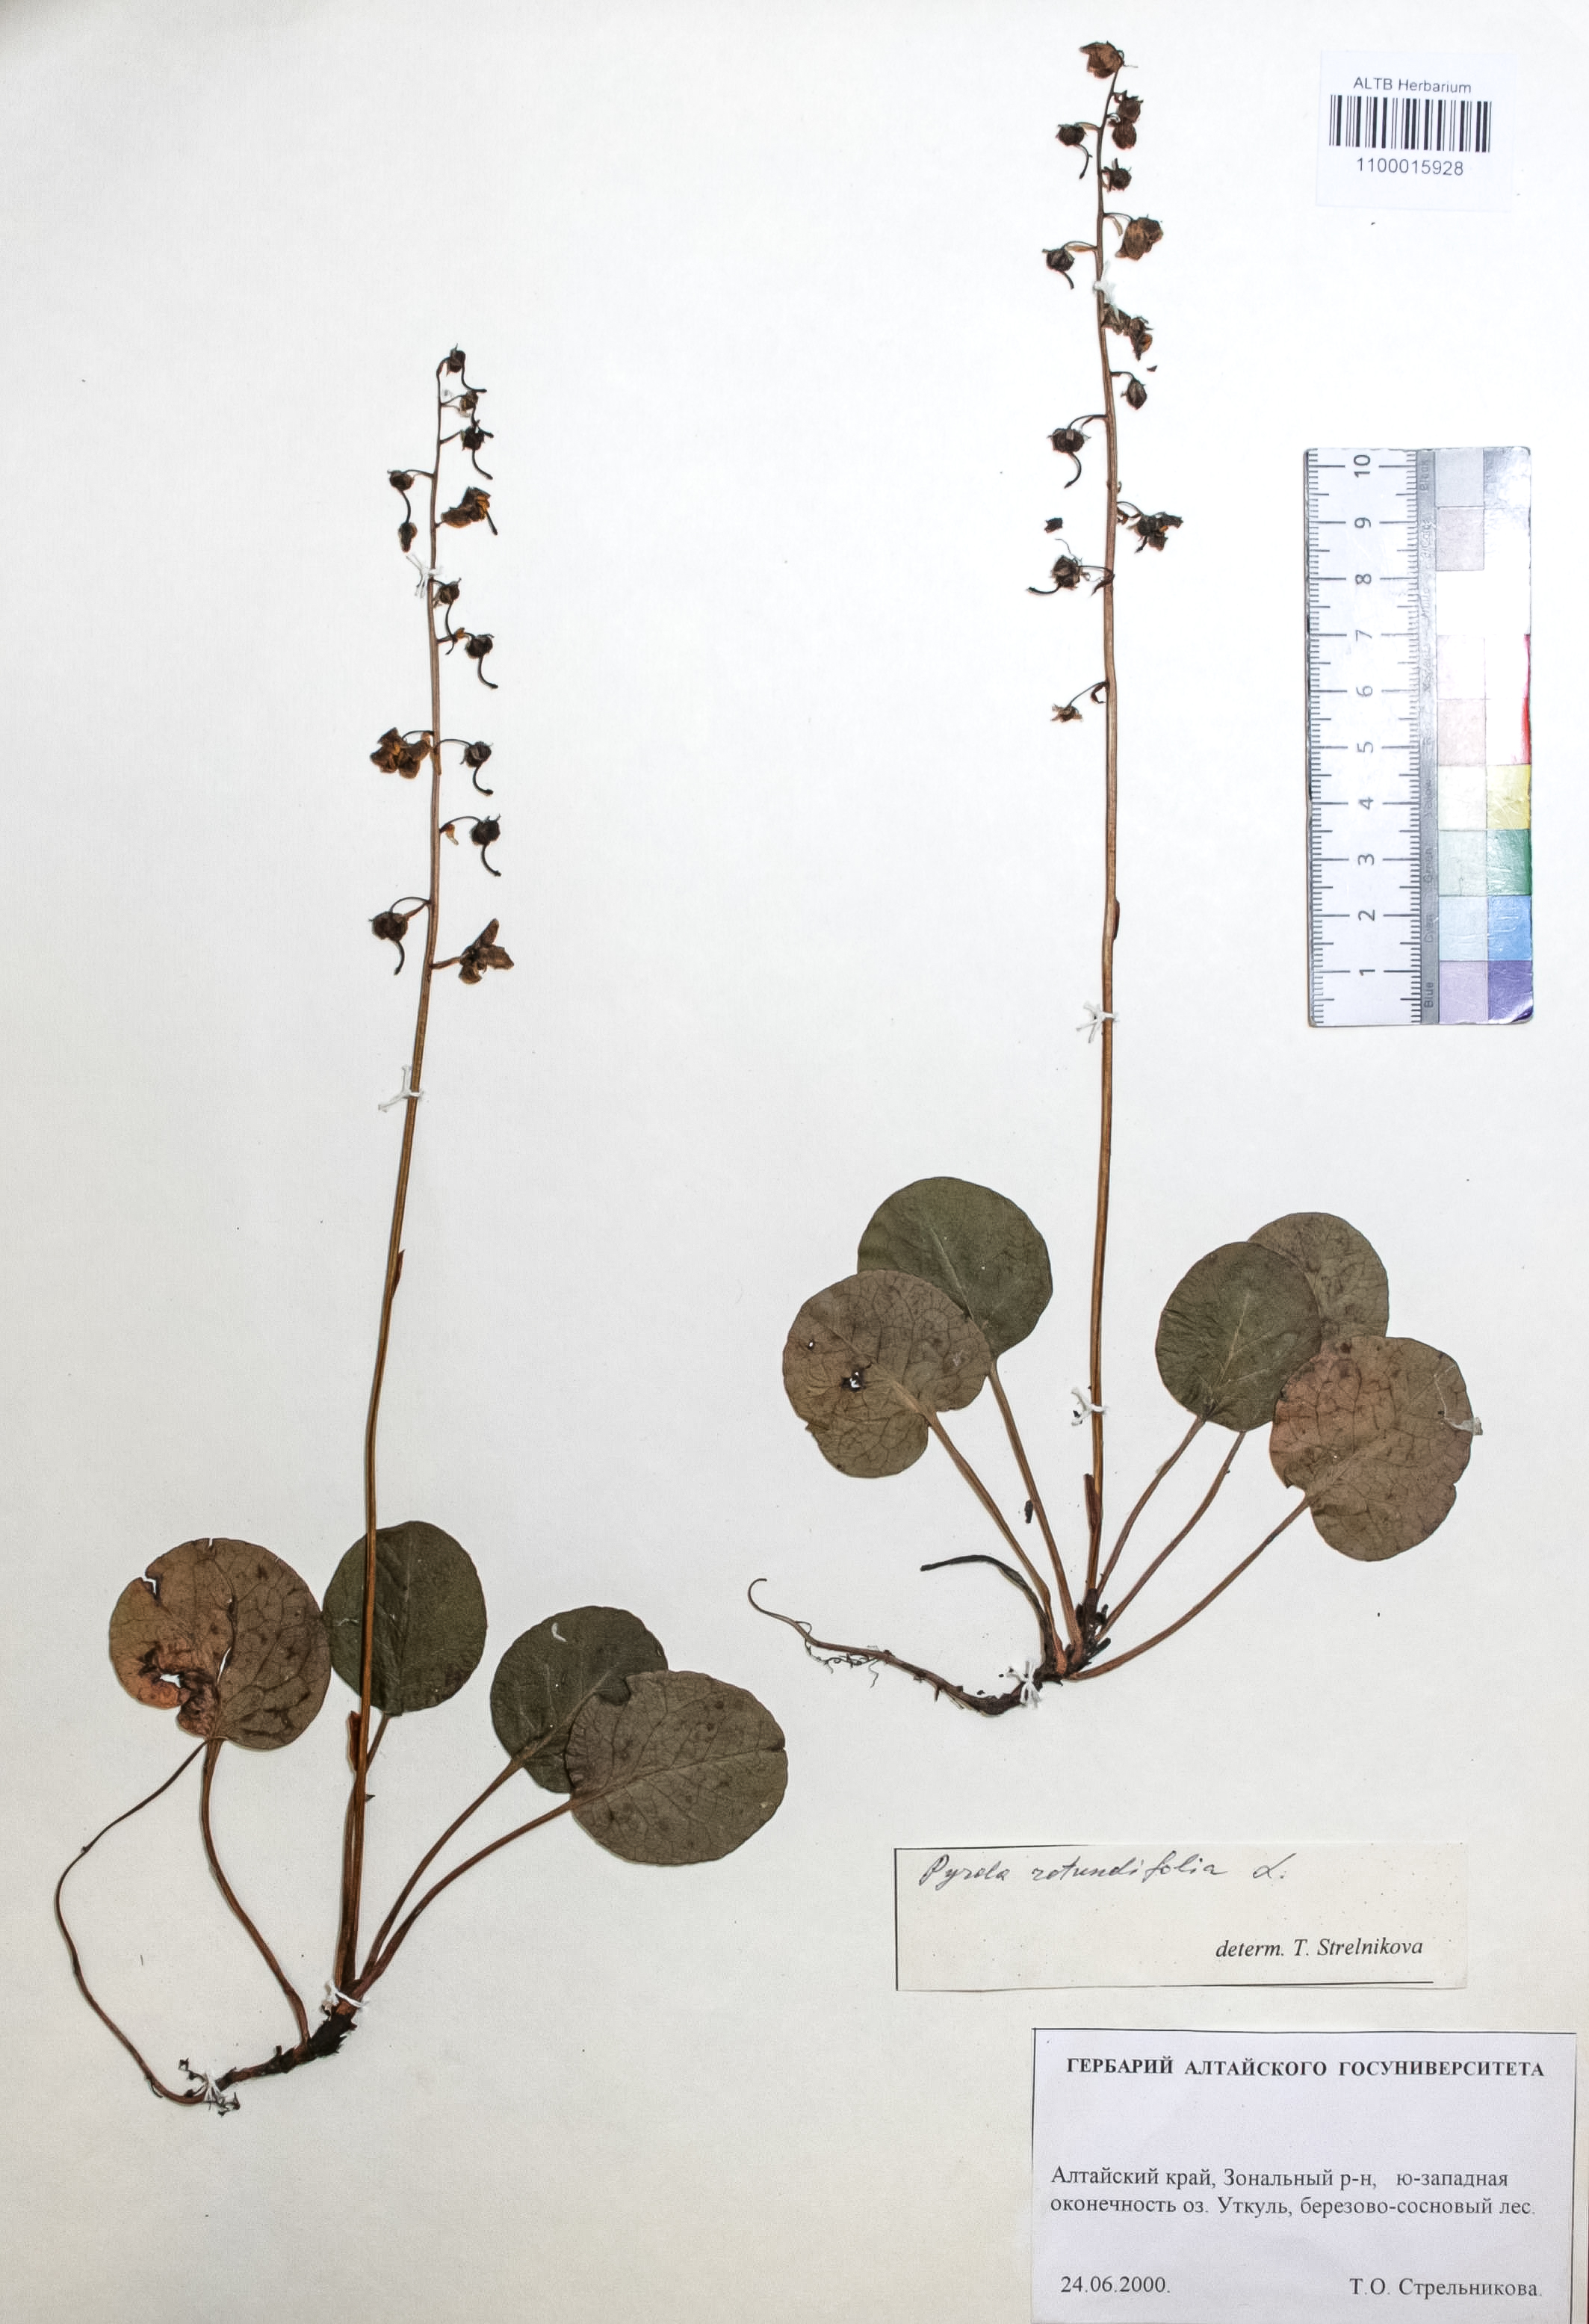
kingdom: Plantae
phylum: Tracheophyta
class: Magnoliopsida
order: Ericales
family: Ericaceae
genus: Pyrola
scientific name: Pyrola rotundifolia
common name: Round-leaved wintergreen
